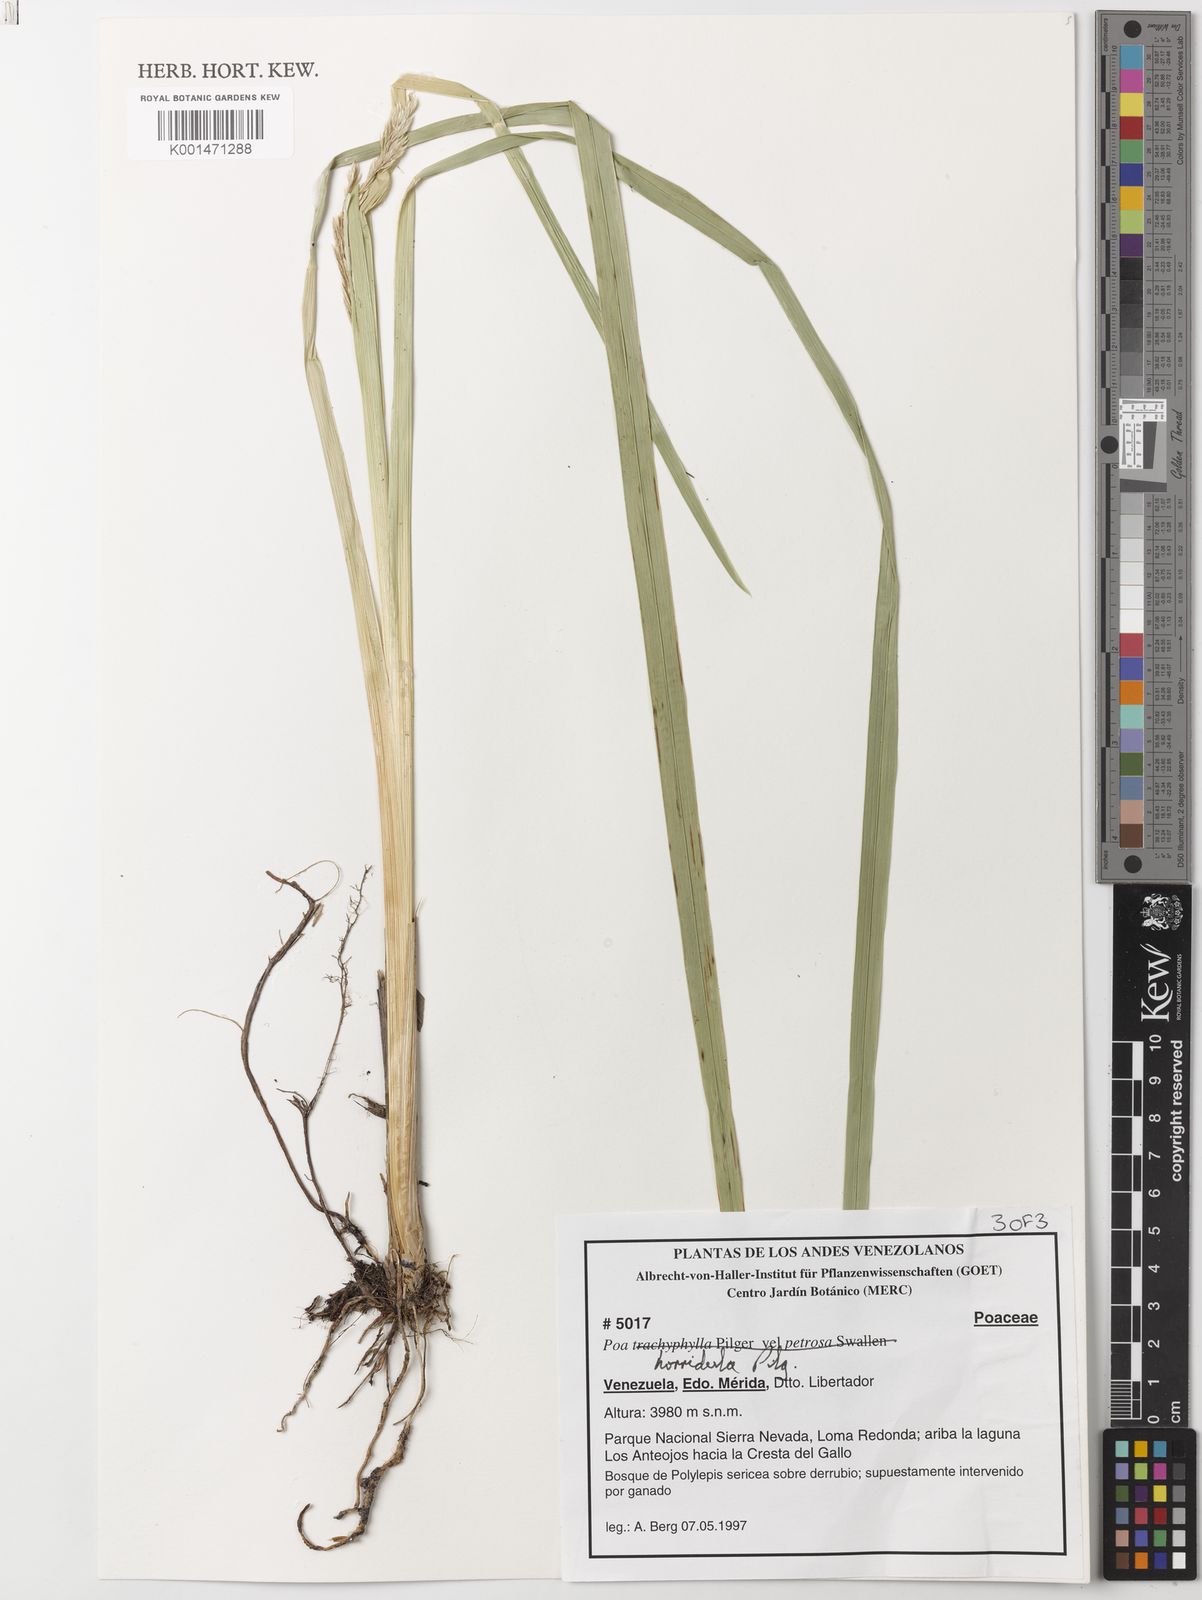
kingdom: Plantae
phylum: Tracheophyta
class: Liliopsida
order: Poales
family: Poaceae
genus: Poa
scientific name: Poa horridula
